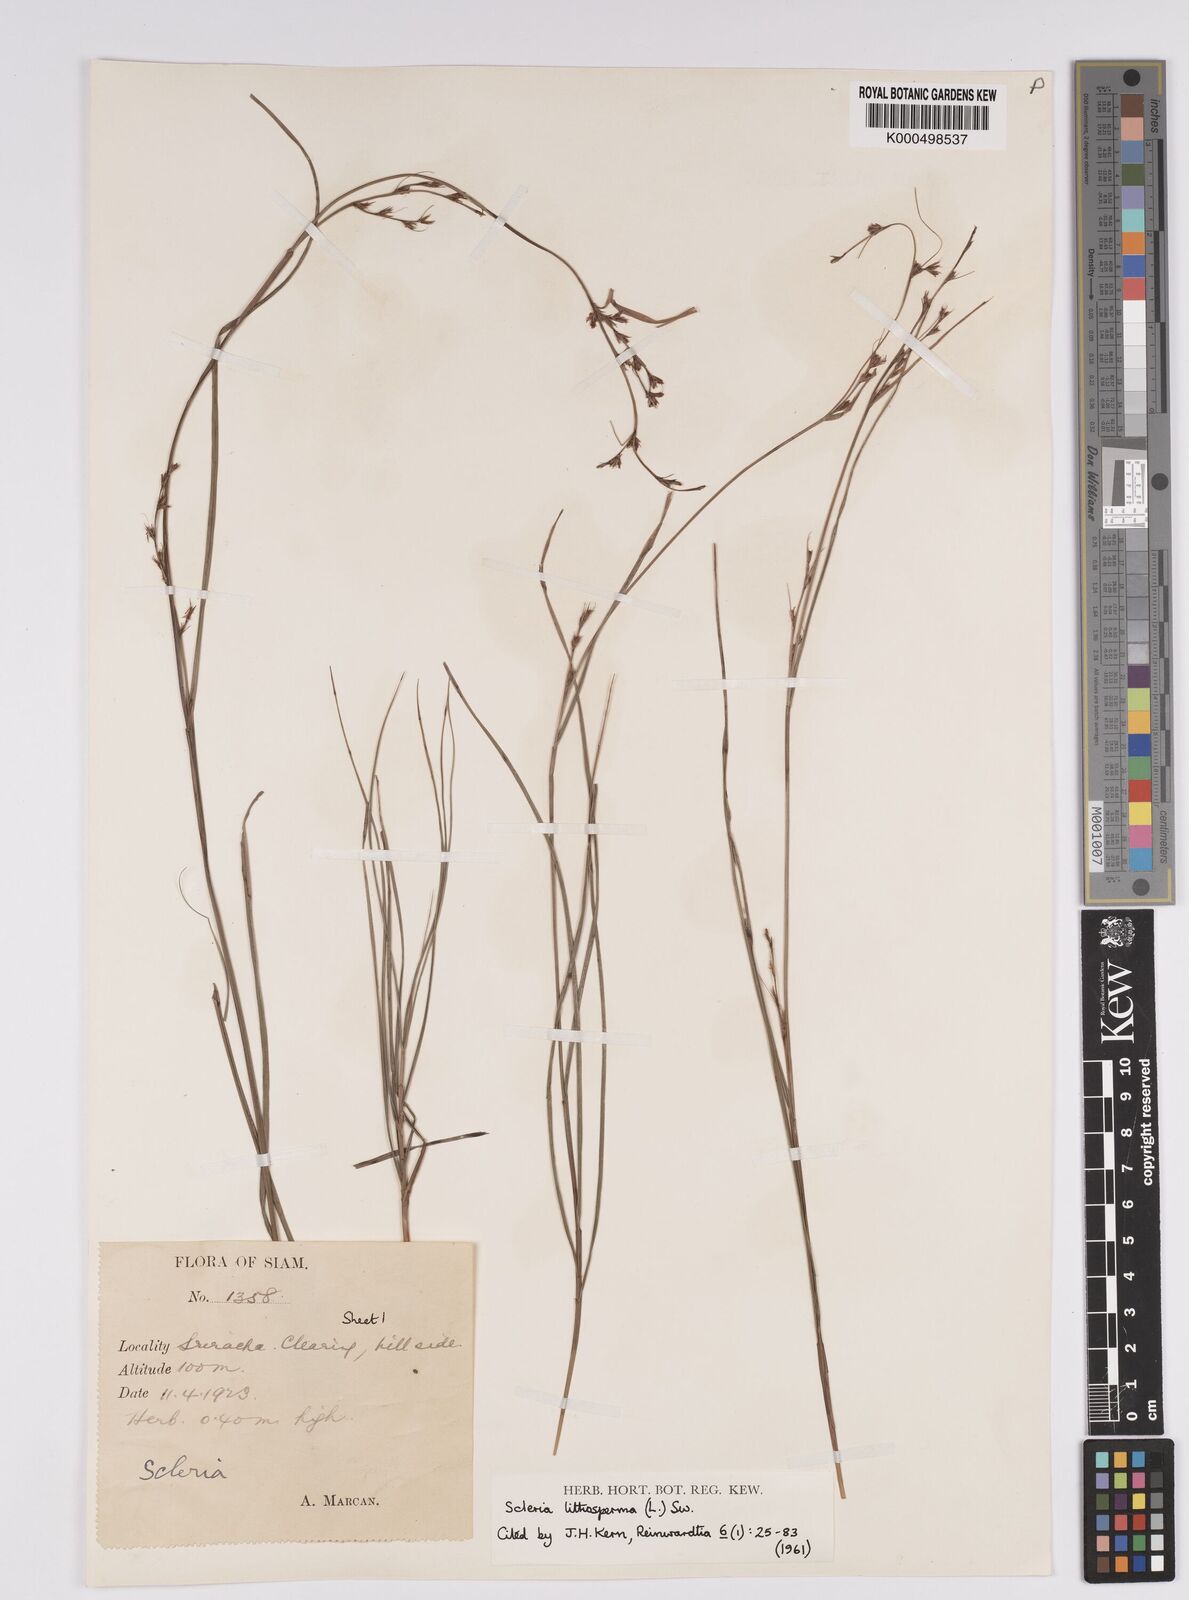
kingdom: Plantae
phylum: Tracheophyta
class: Liliopsida
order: Poales
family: Cyperaceae
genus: Scleria
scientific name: Scleria lithosperma
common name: Florida keys nut-rush
